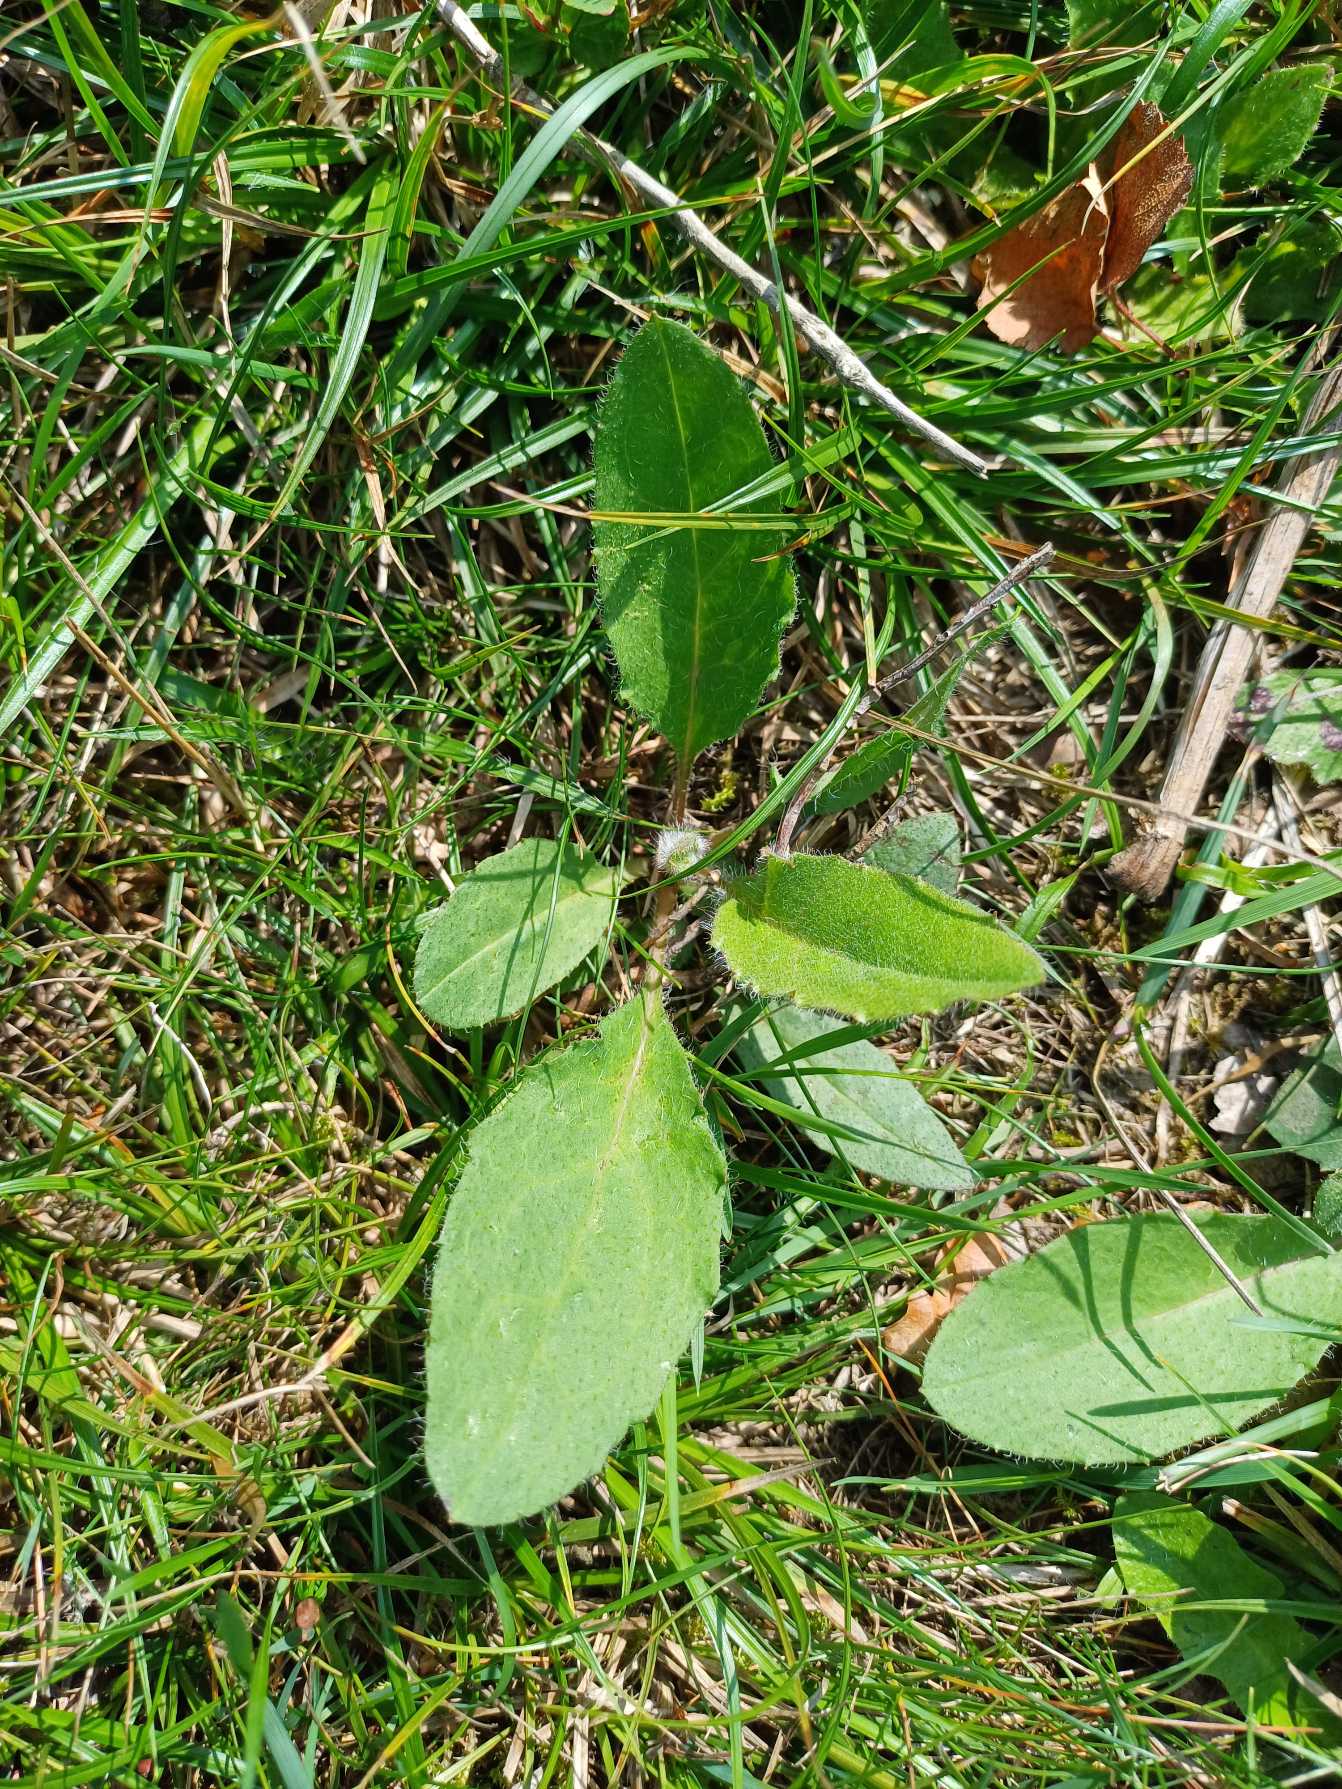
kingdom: Plantae
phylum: Tracheophyta
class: Magnoliopsida
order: Asterales
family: Asteraceae
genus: Hieracium
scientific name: Hieracium
